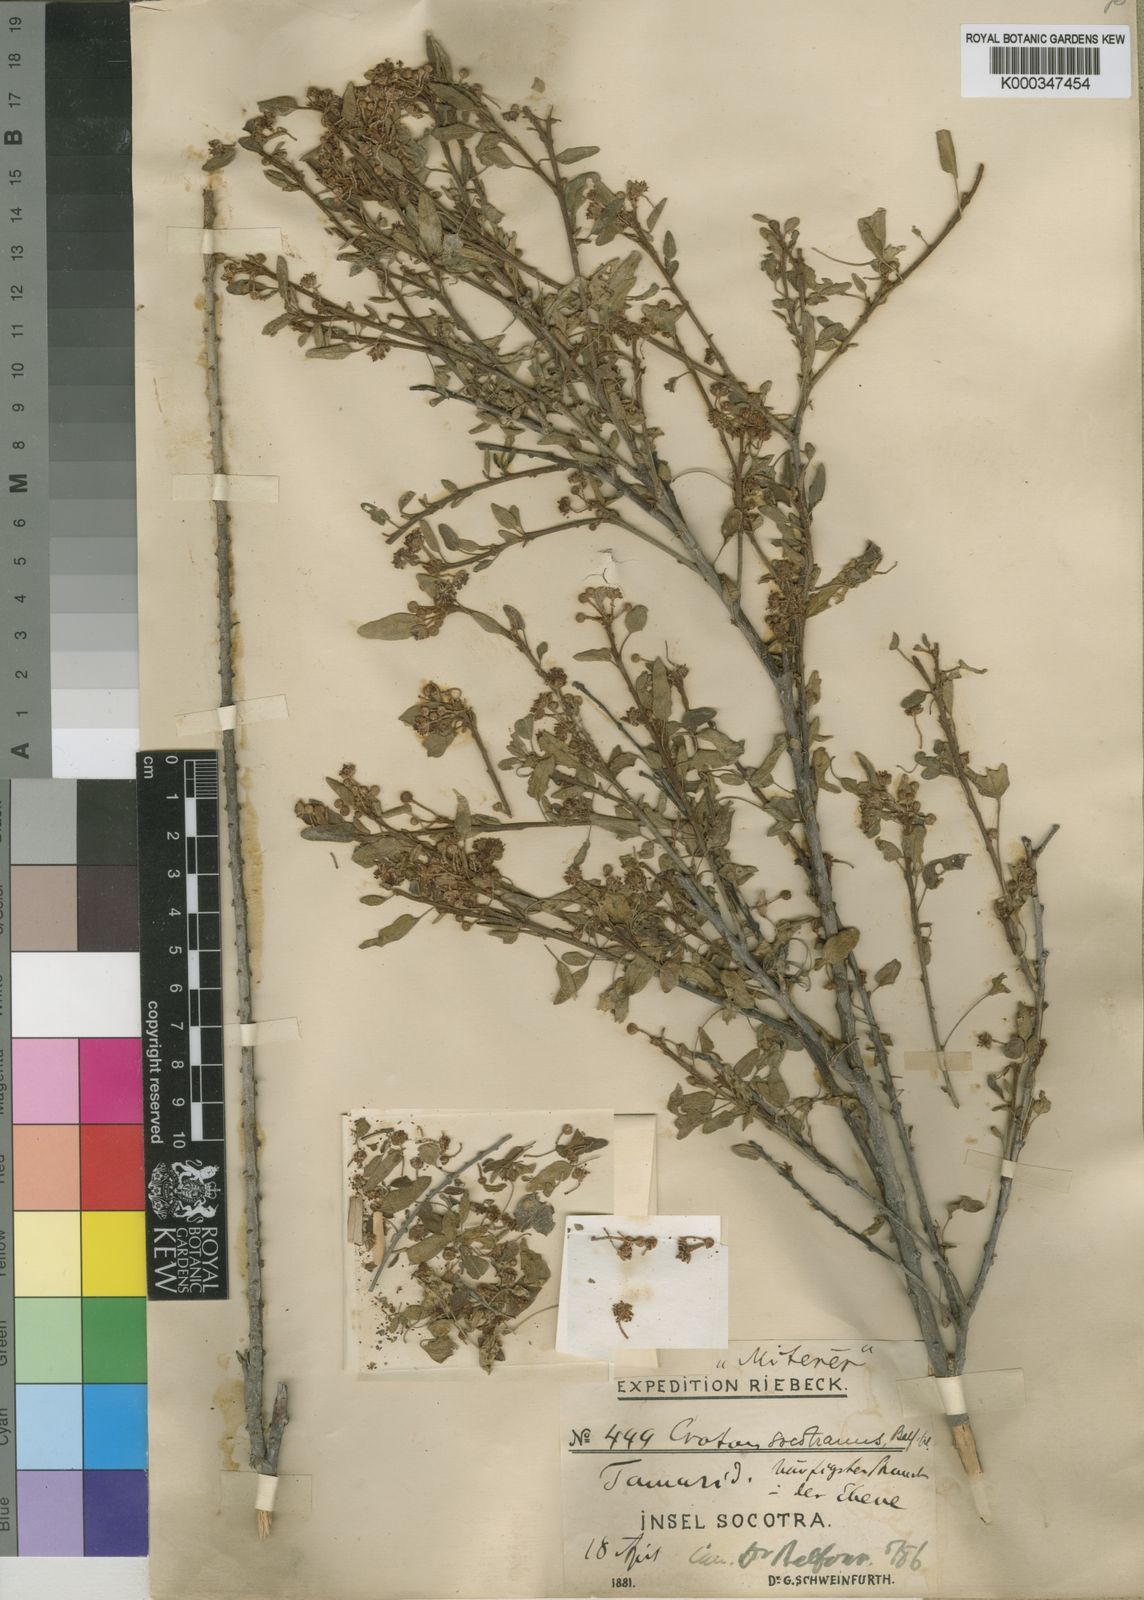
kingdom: Plantae
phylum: Tracheophyta
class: Magnoliopsida
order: Malpighiales
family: Euphorbiaceae
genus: Croton
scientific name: Croton socotranus
